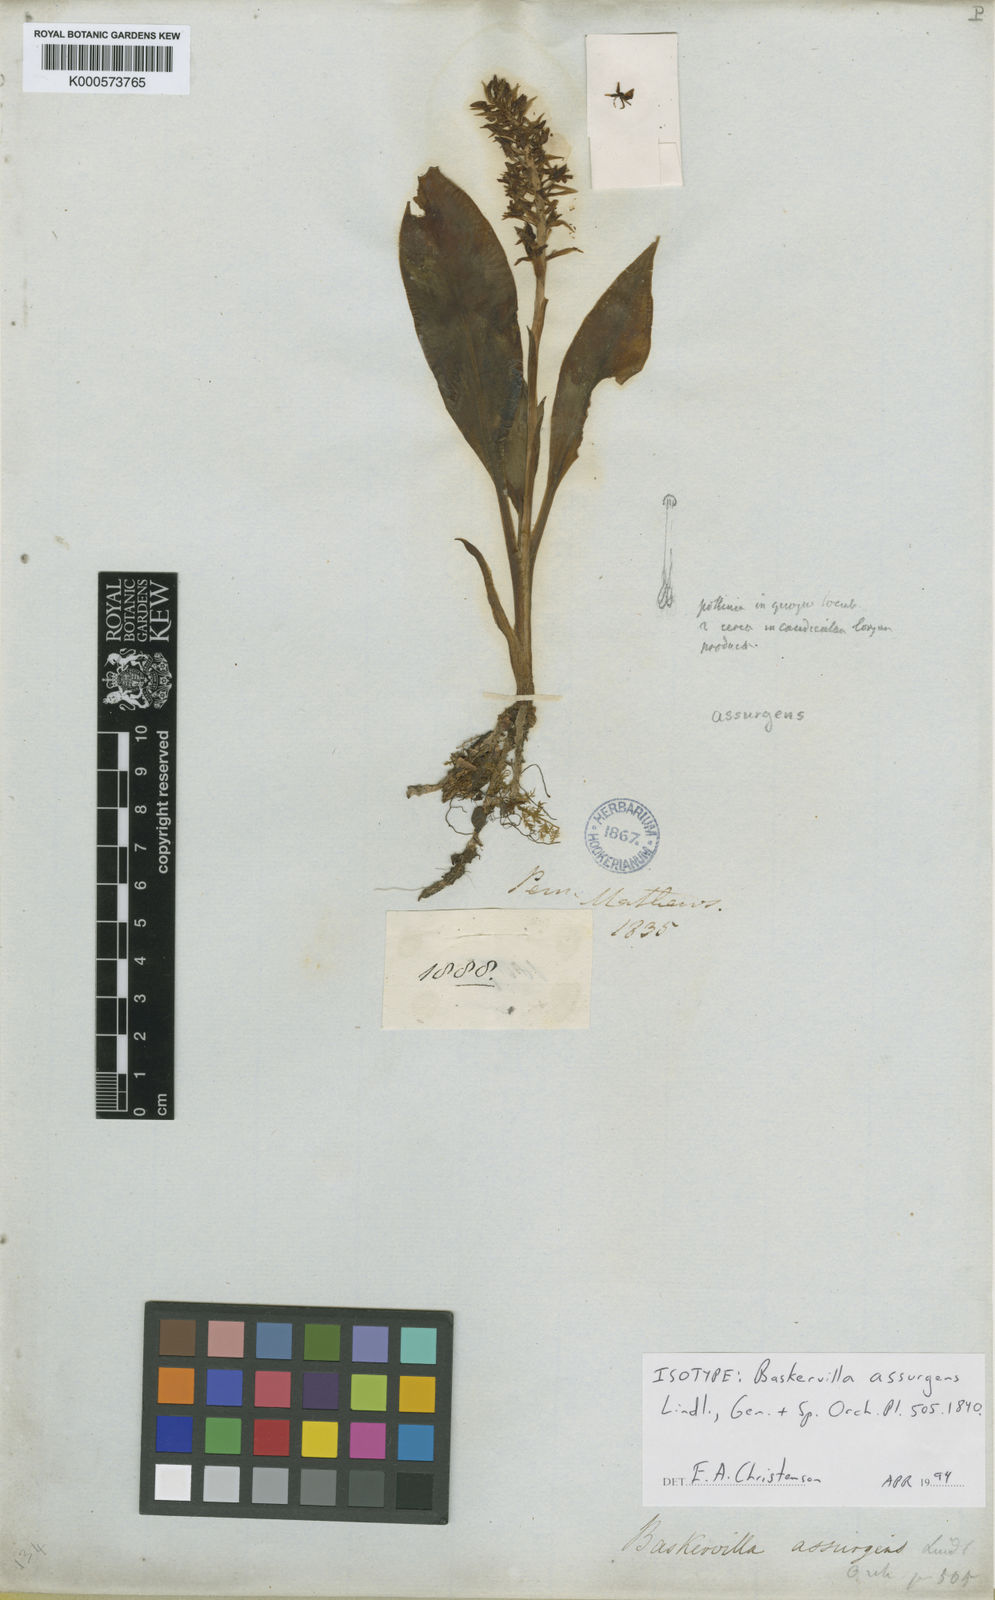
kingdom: Plantae
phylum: Tracheophyta
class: Liliopsida
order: Asparagales
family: Orchidaceae
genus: Baskervilla
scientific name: Baskervilla assurgens
